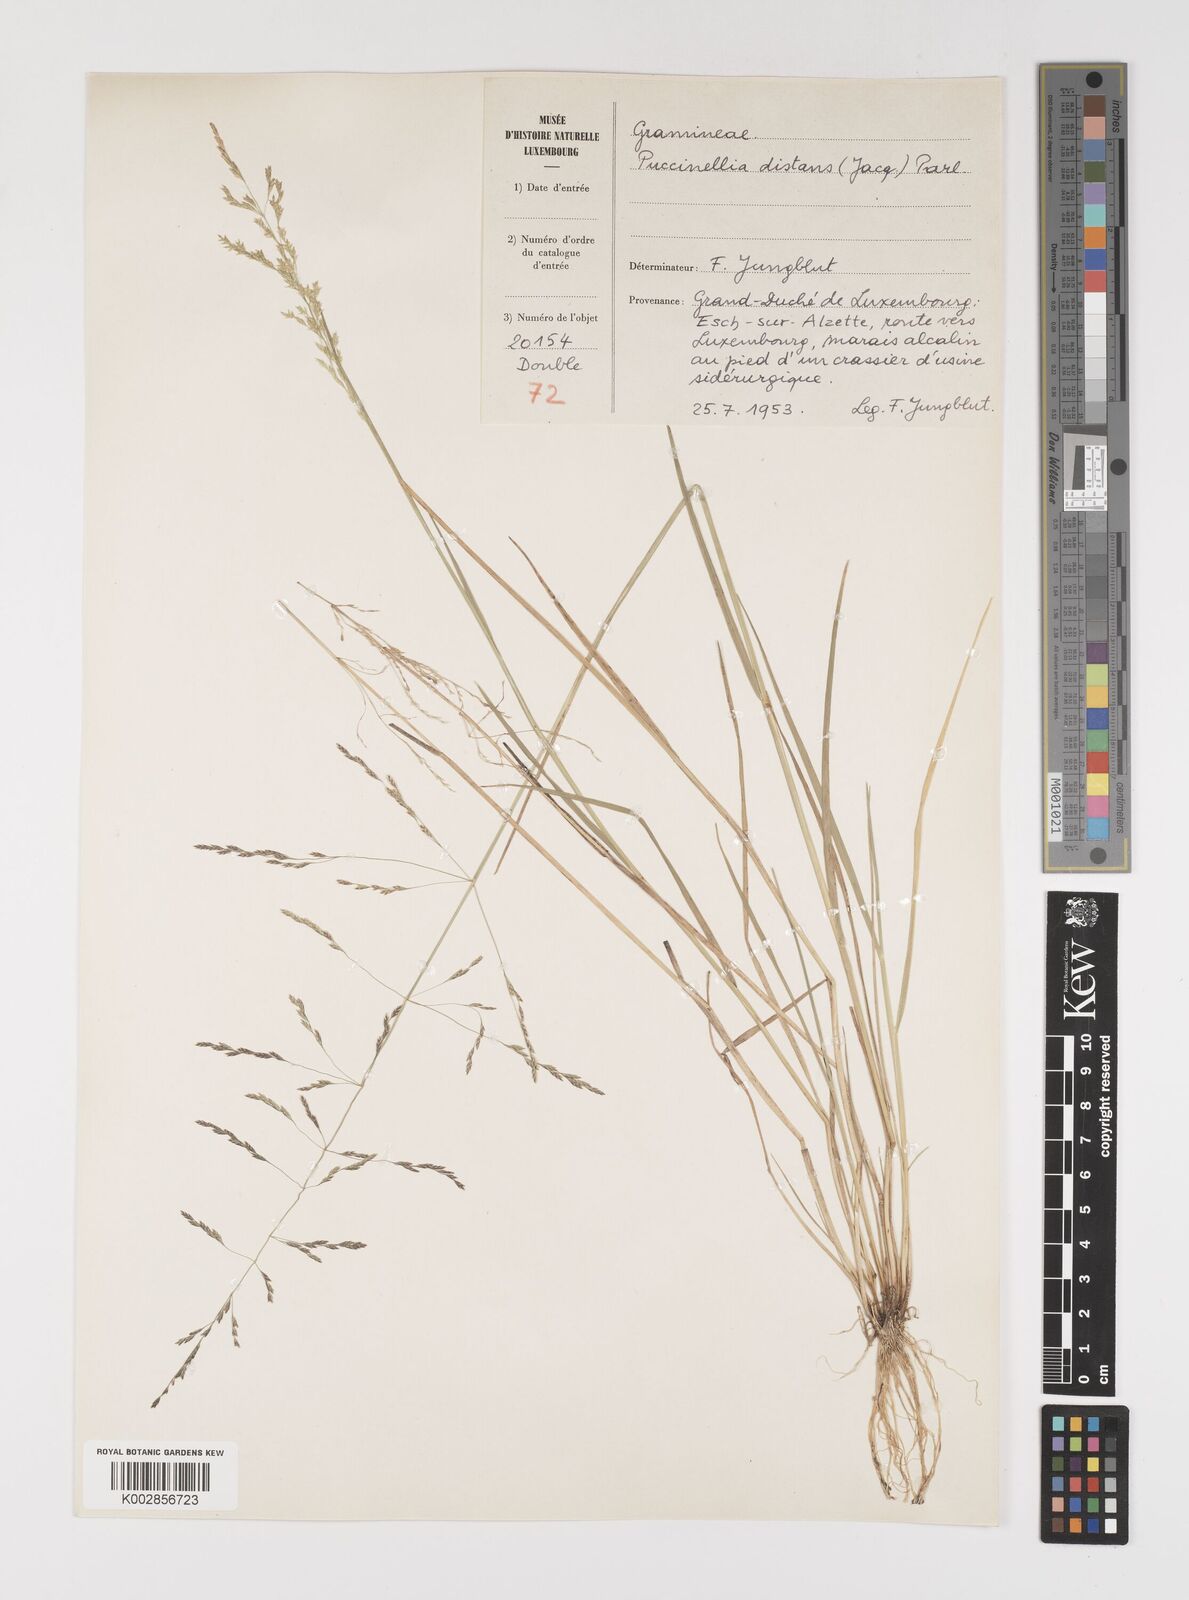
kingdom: Plantae
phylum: Tracheophyta
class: Liliopsida
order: Poales
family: Poaceae
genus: Puccinellia
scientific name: Puccinellia
